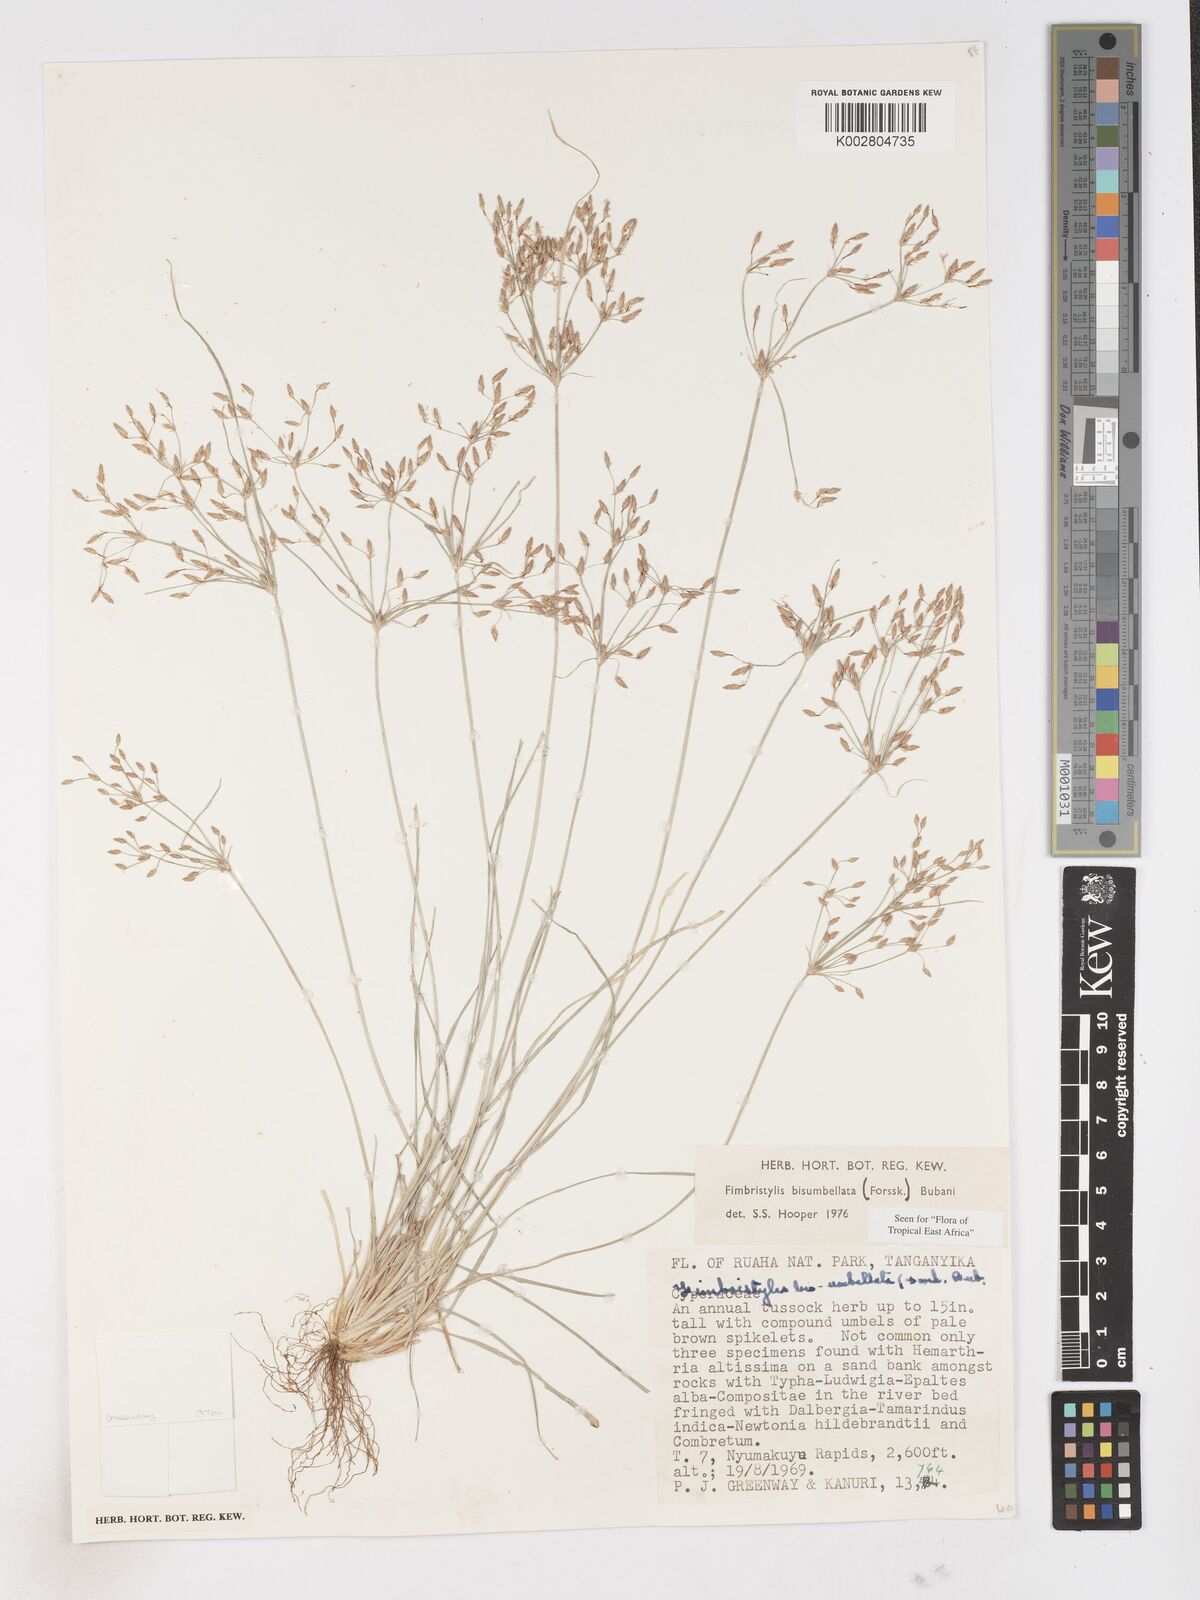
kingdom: Plantae
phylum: Tracheophyta
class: Liliopsida
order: Poales
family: Cyperaceae
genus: Fimbristylis
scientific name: Fimbristylis bisumbellata
